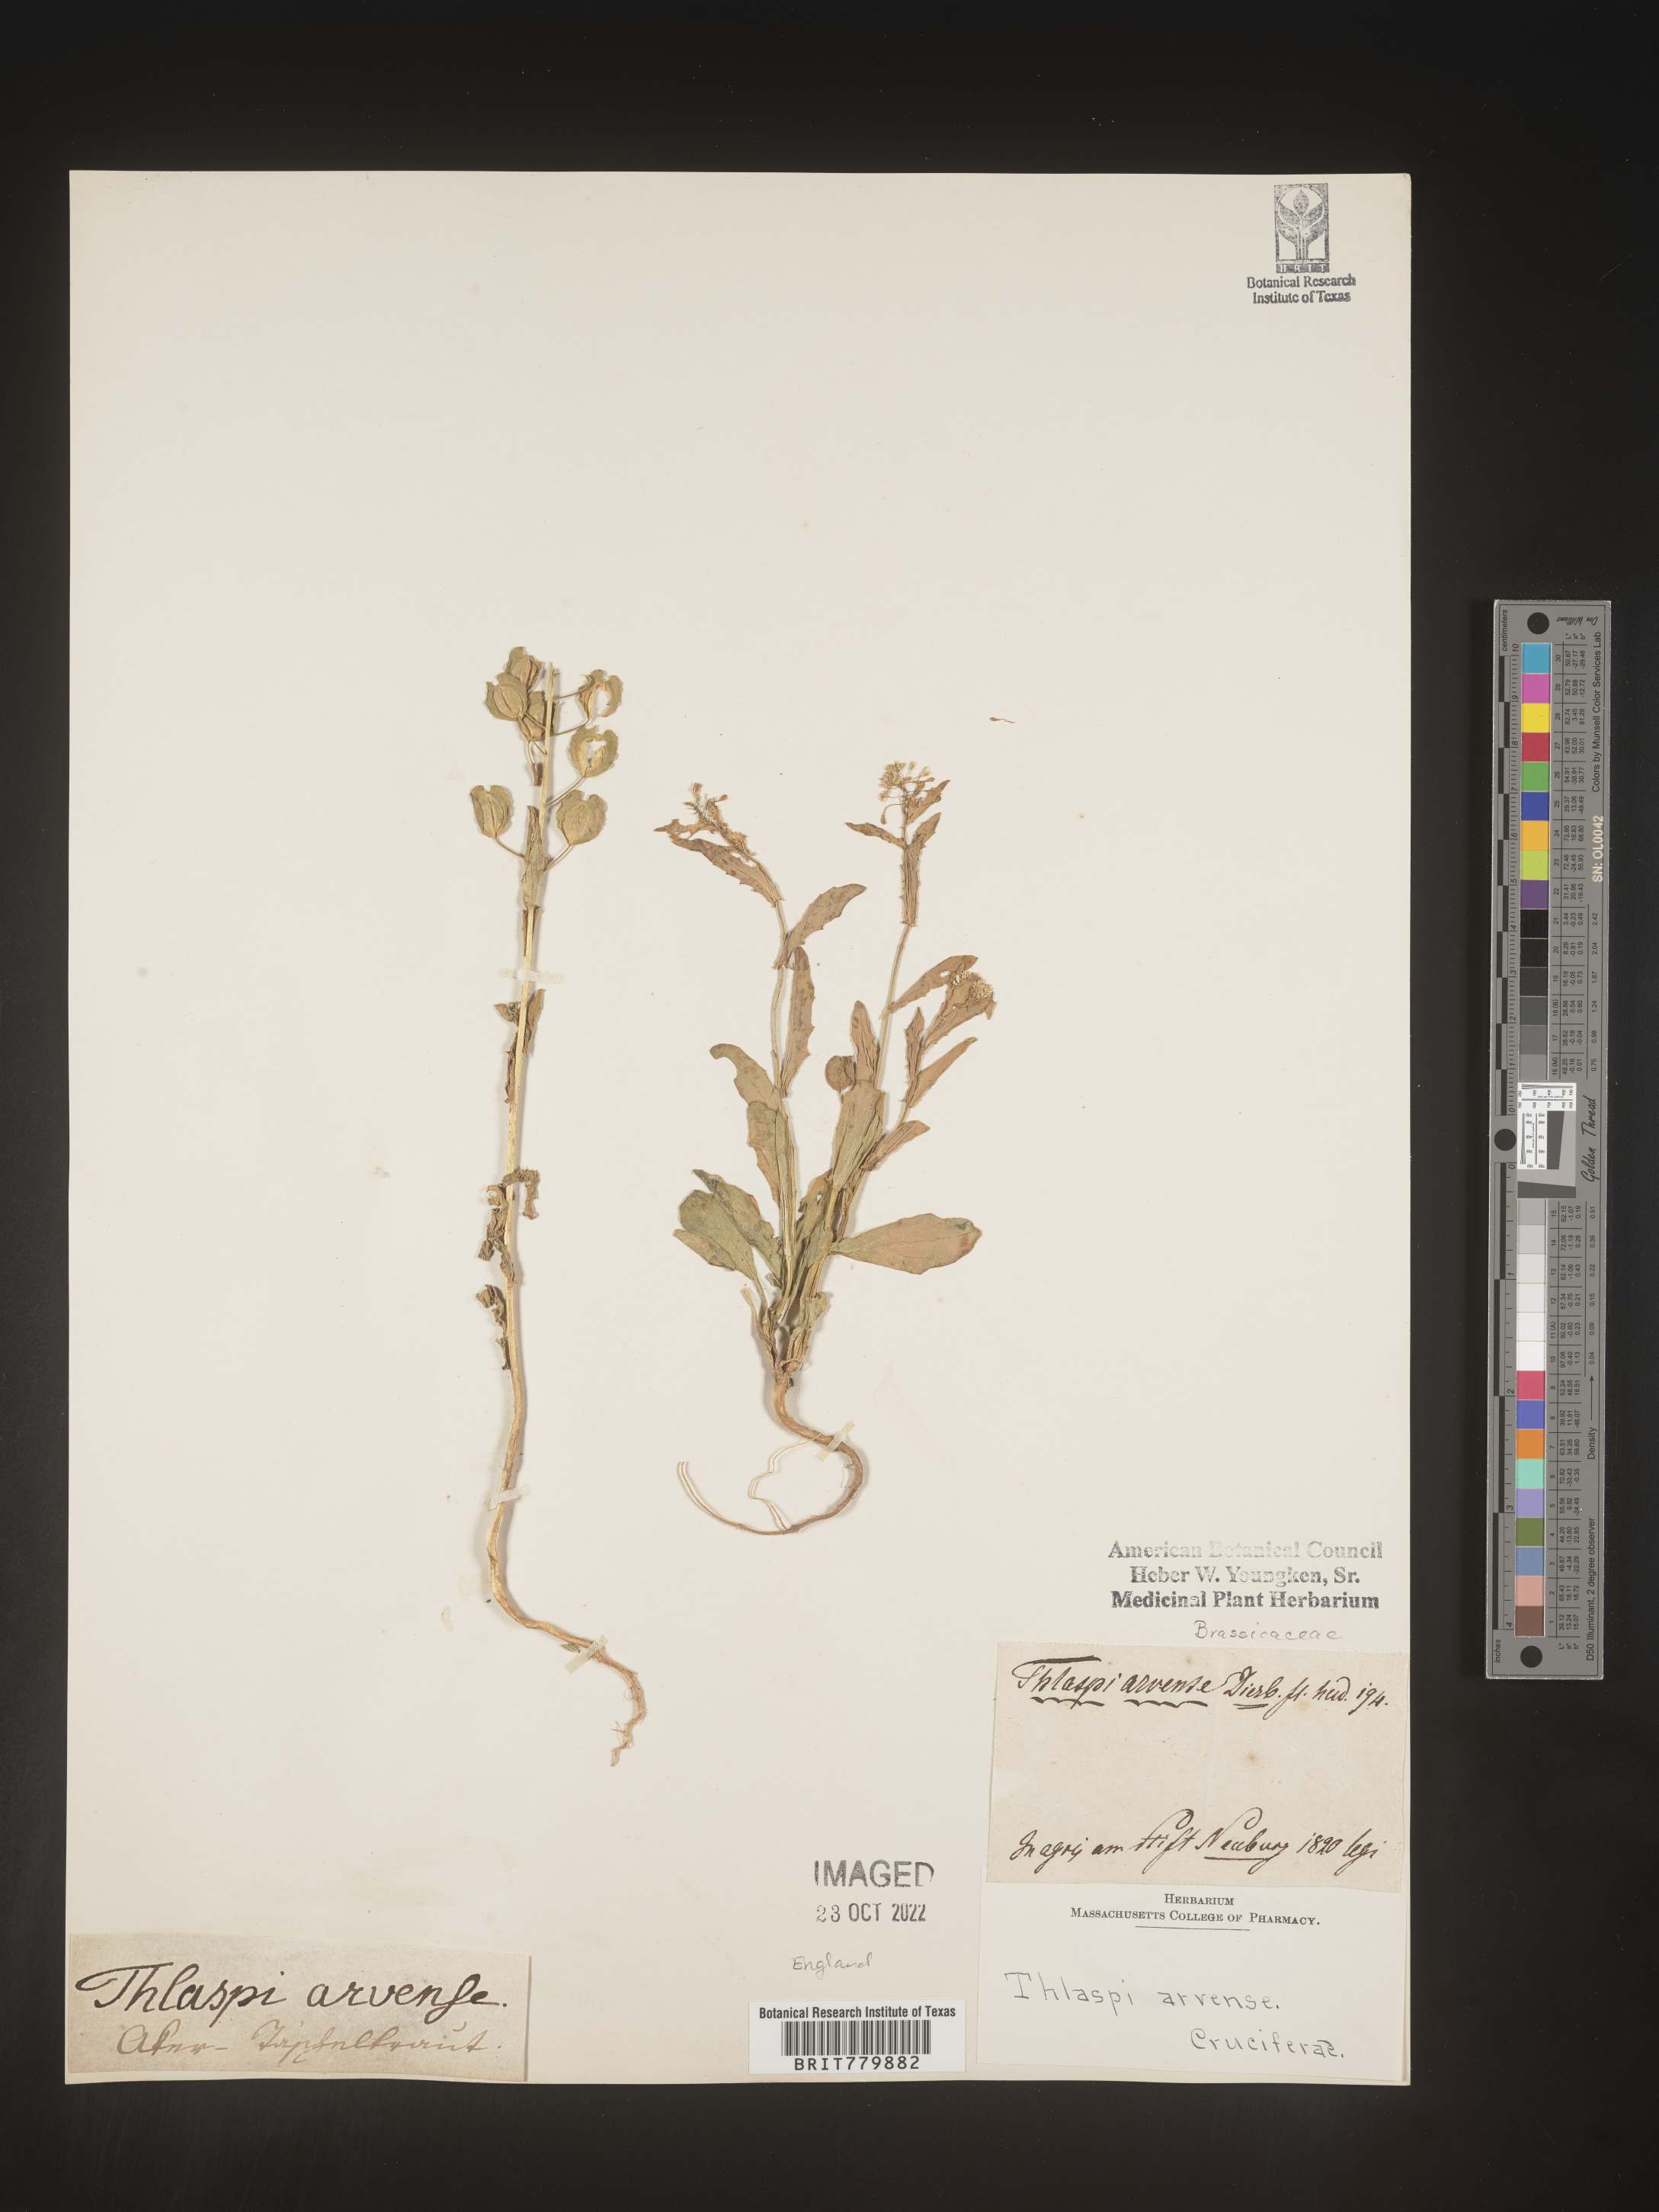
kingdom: Plantae
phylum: Tracheophyta
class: Magnoliopsida
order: Brassicales
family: Brassicaceae
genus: Thlaspi
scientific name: Thlaspi
